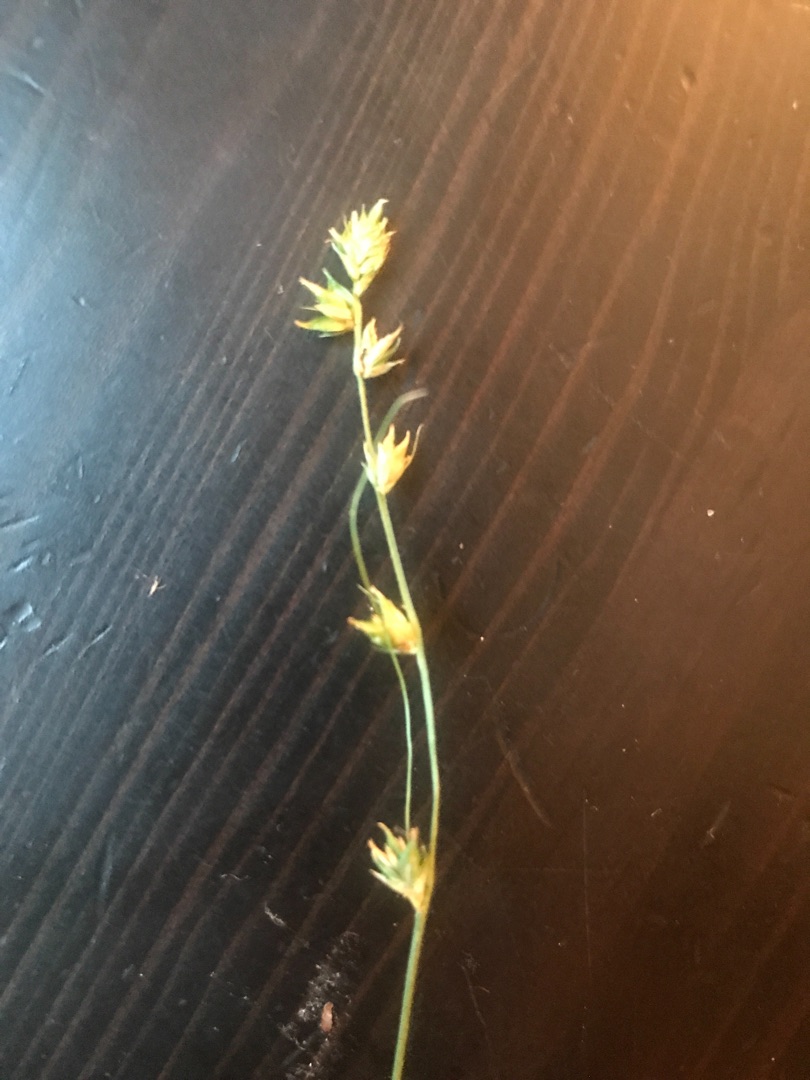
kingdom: Plantae
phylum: Tracheophyta
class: Liliopsida
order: Poales
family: Cyperaceae
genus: Carex
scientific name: Carex divulsa
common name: Mellembrudt star
